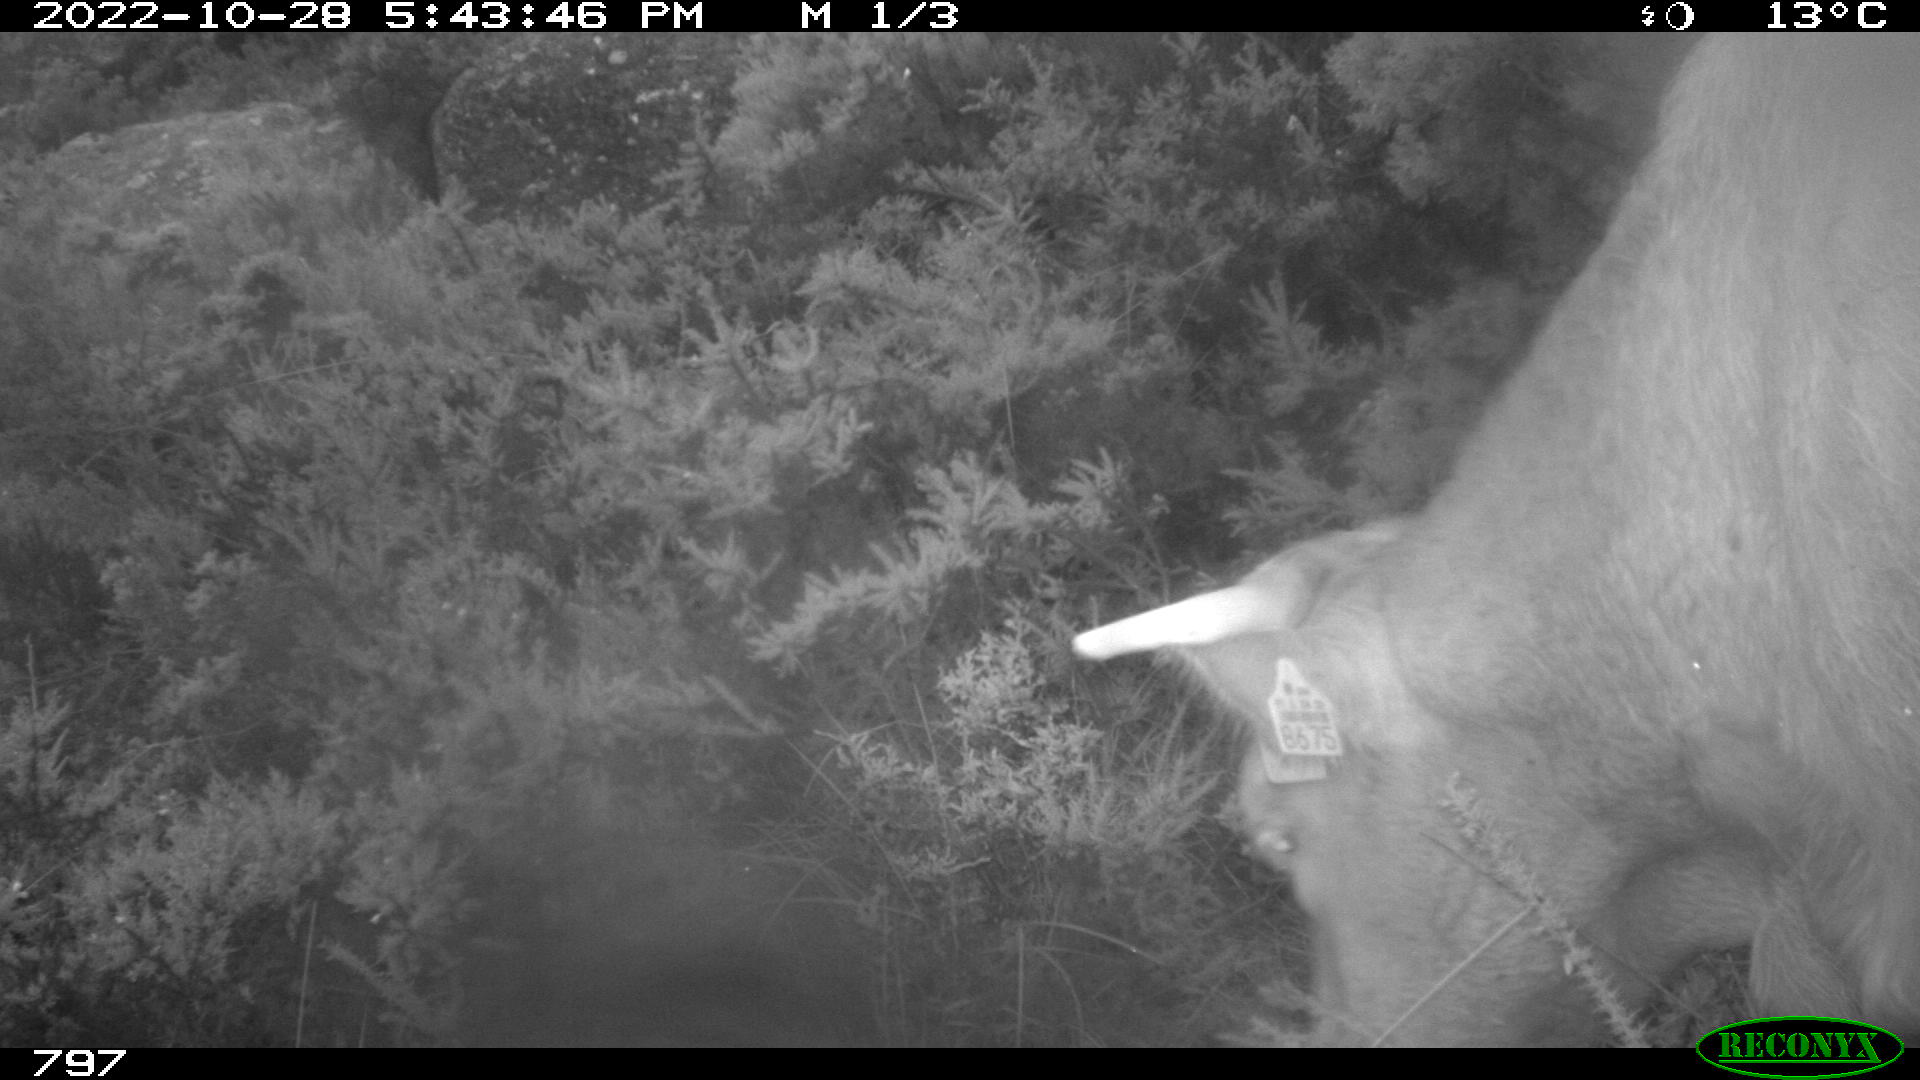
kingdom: Animalia
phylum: Chordata
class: Mammalia
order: Artiodactyla
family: Bovidae
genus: Bos
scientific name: Bos taurus
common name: Domesticated cattle
